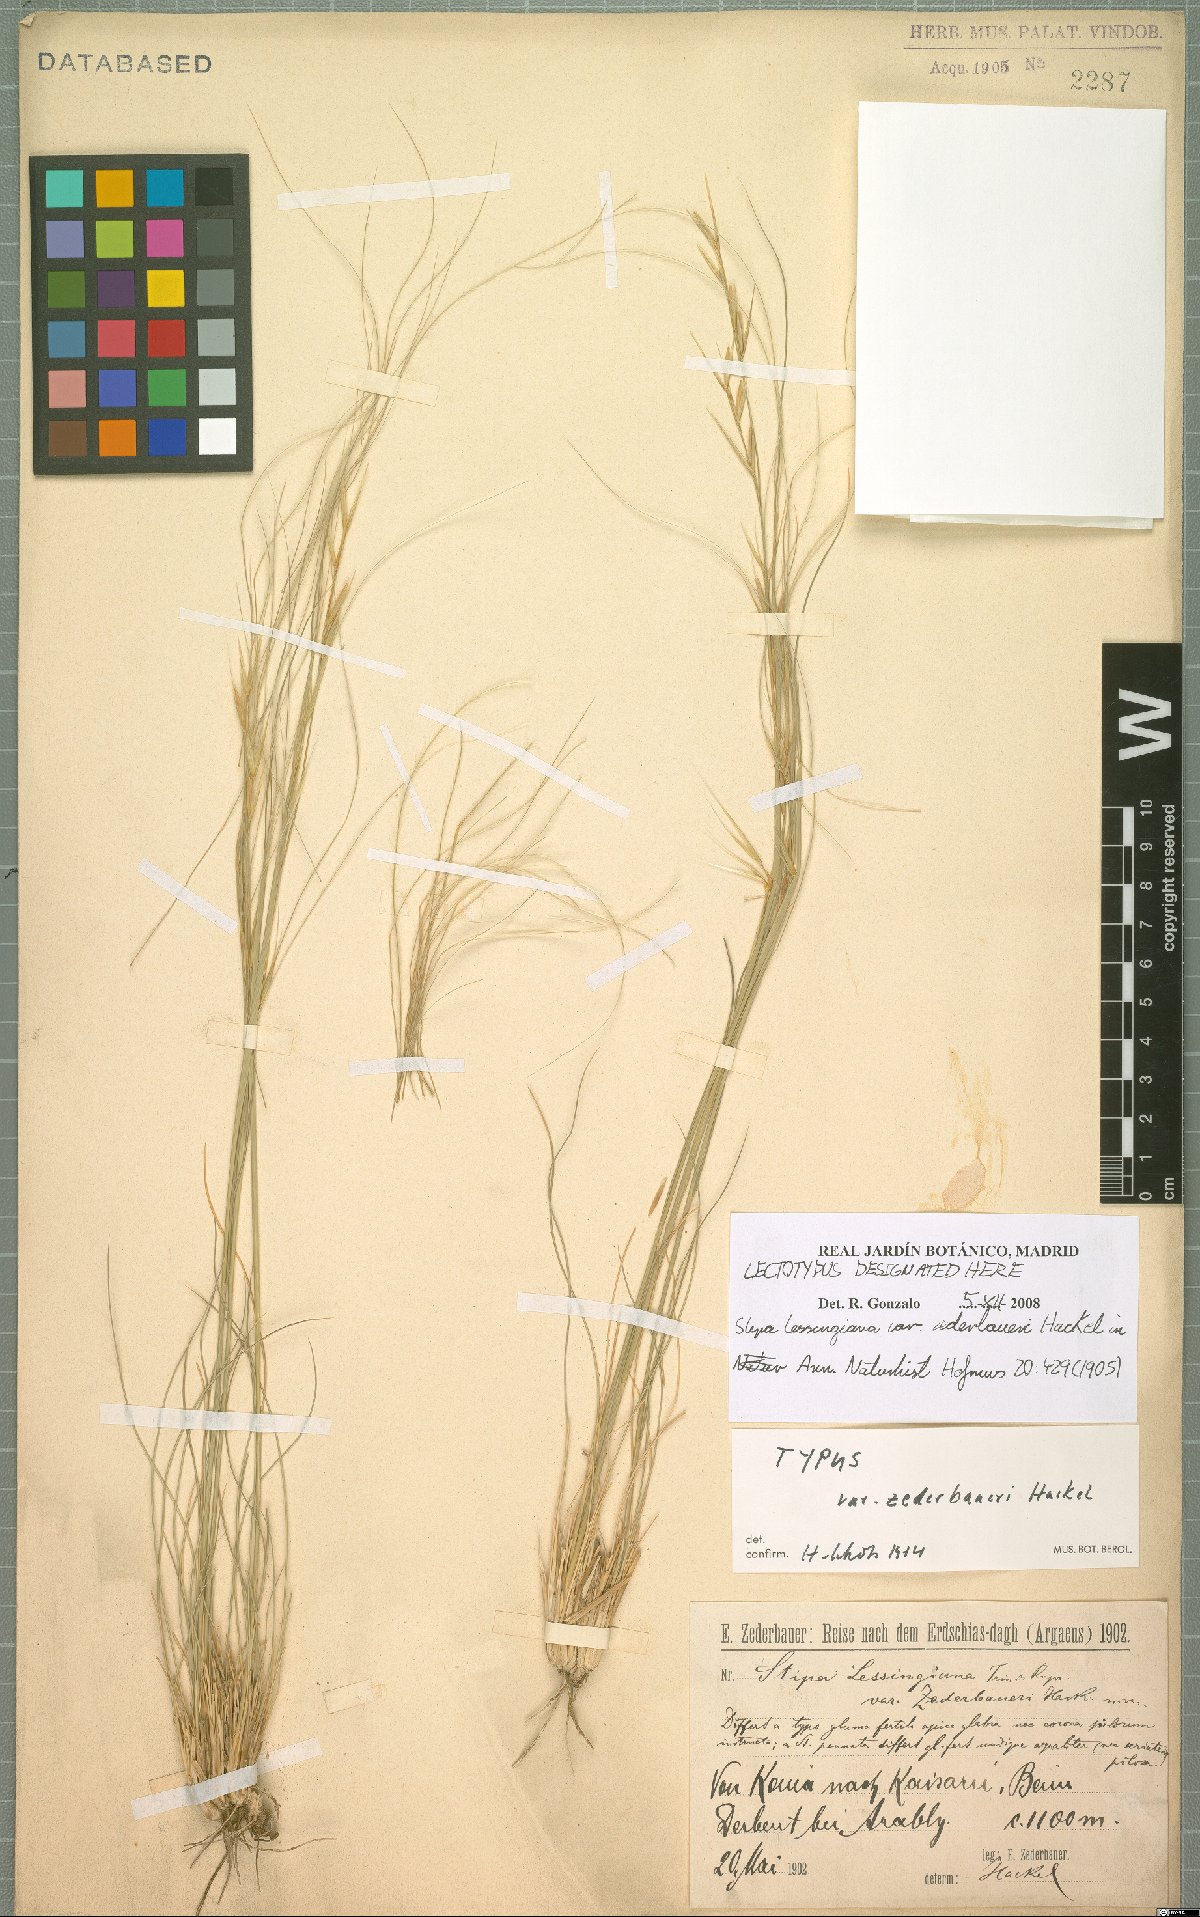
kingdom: Plantae
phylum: Tracheophyta
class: Liliopsida
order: Poales
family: Poaceae
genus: Stipa
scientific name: Stipa lessingiana
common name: Needle grass
